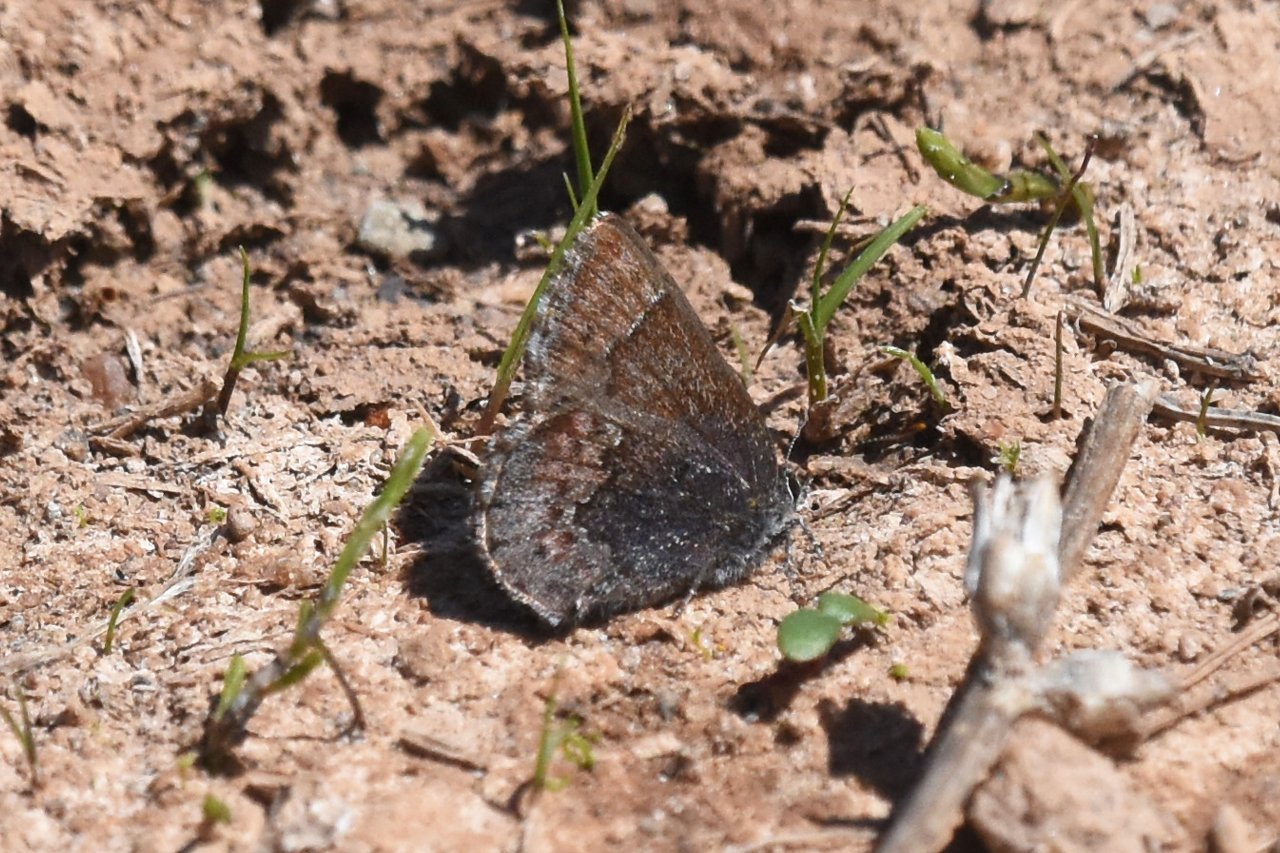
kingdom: Animalia
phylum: Arthropoda
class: Insecta
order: Lepidoptera
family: Lycaenidae
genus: Callophrys
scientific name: Callophrys polios
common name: Hoary Elfin
